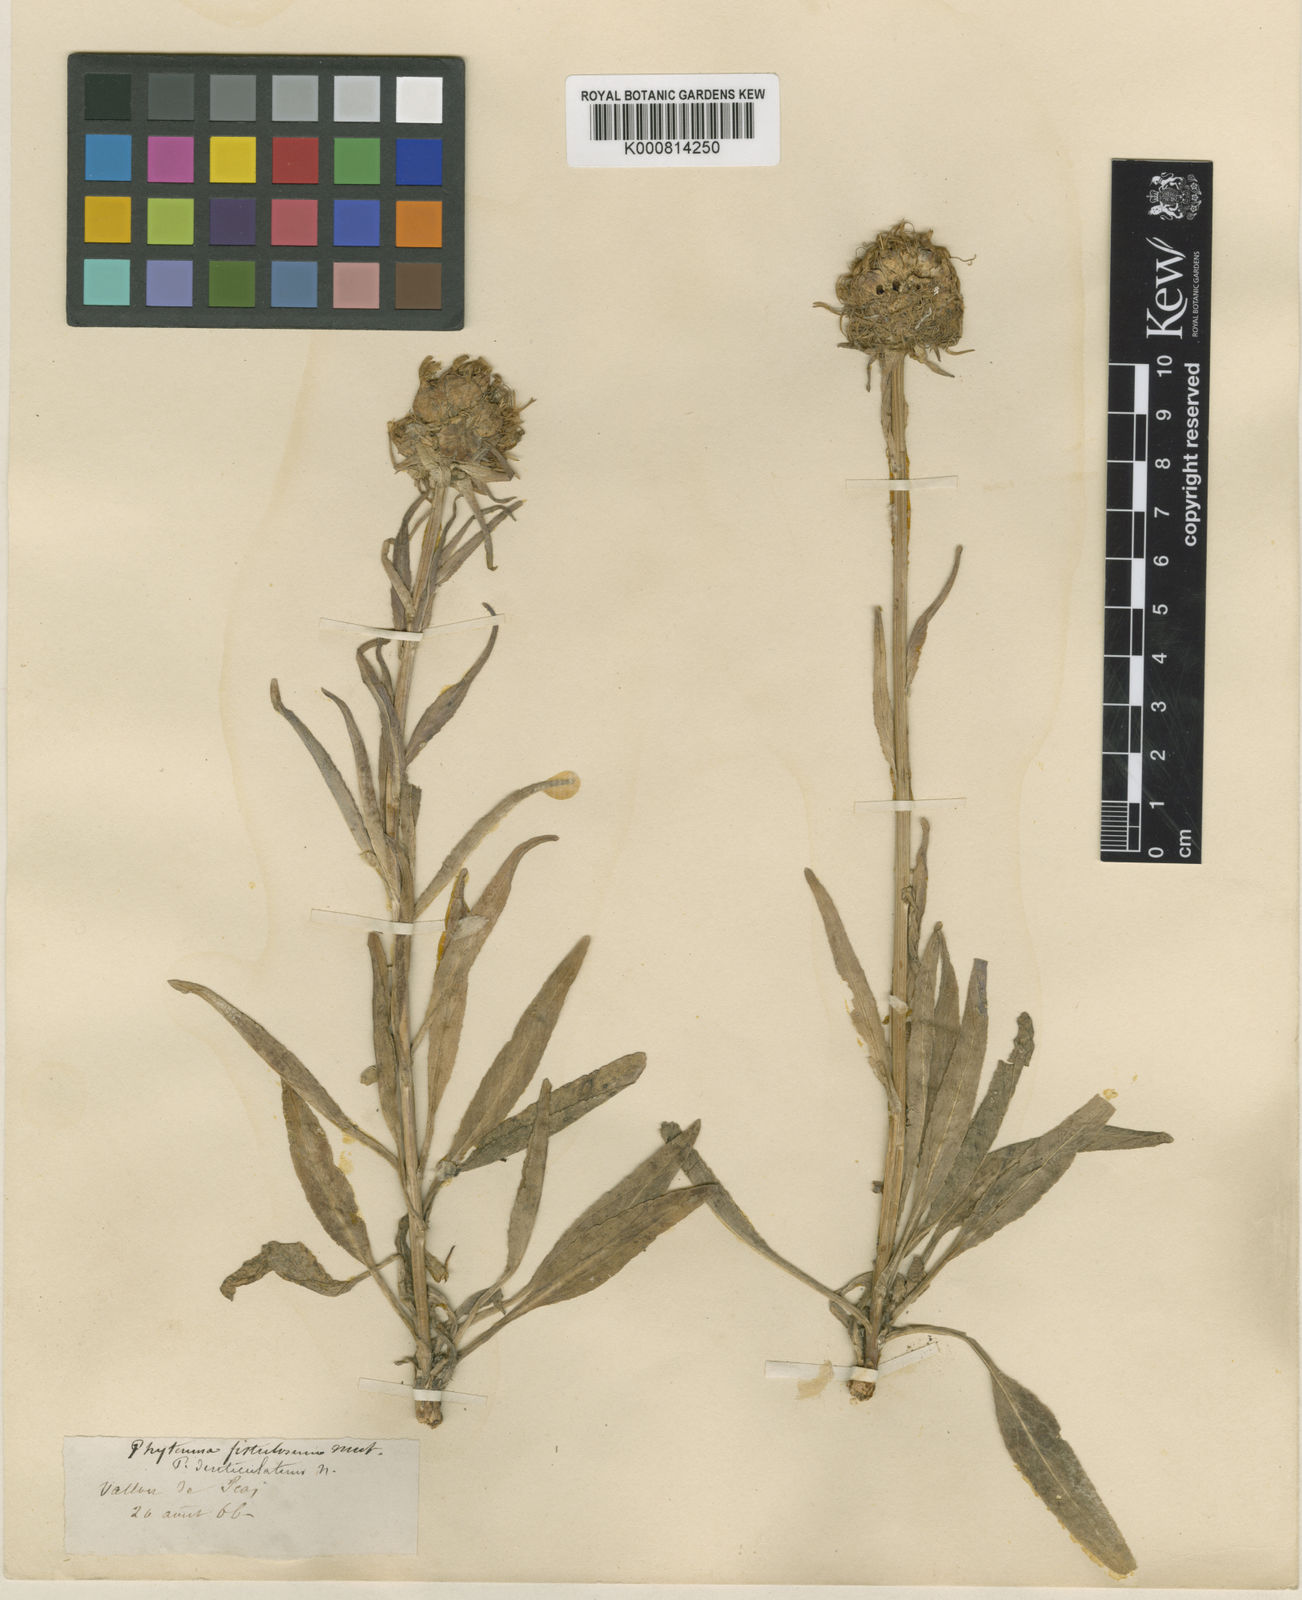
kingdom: Plantae
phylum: Tracheophyta
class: Magnoliopsida
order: Asterales
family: Campanulaceae
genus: Phyteuma
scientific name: Phyteuma vagneri
